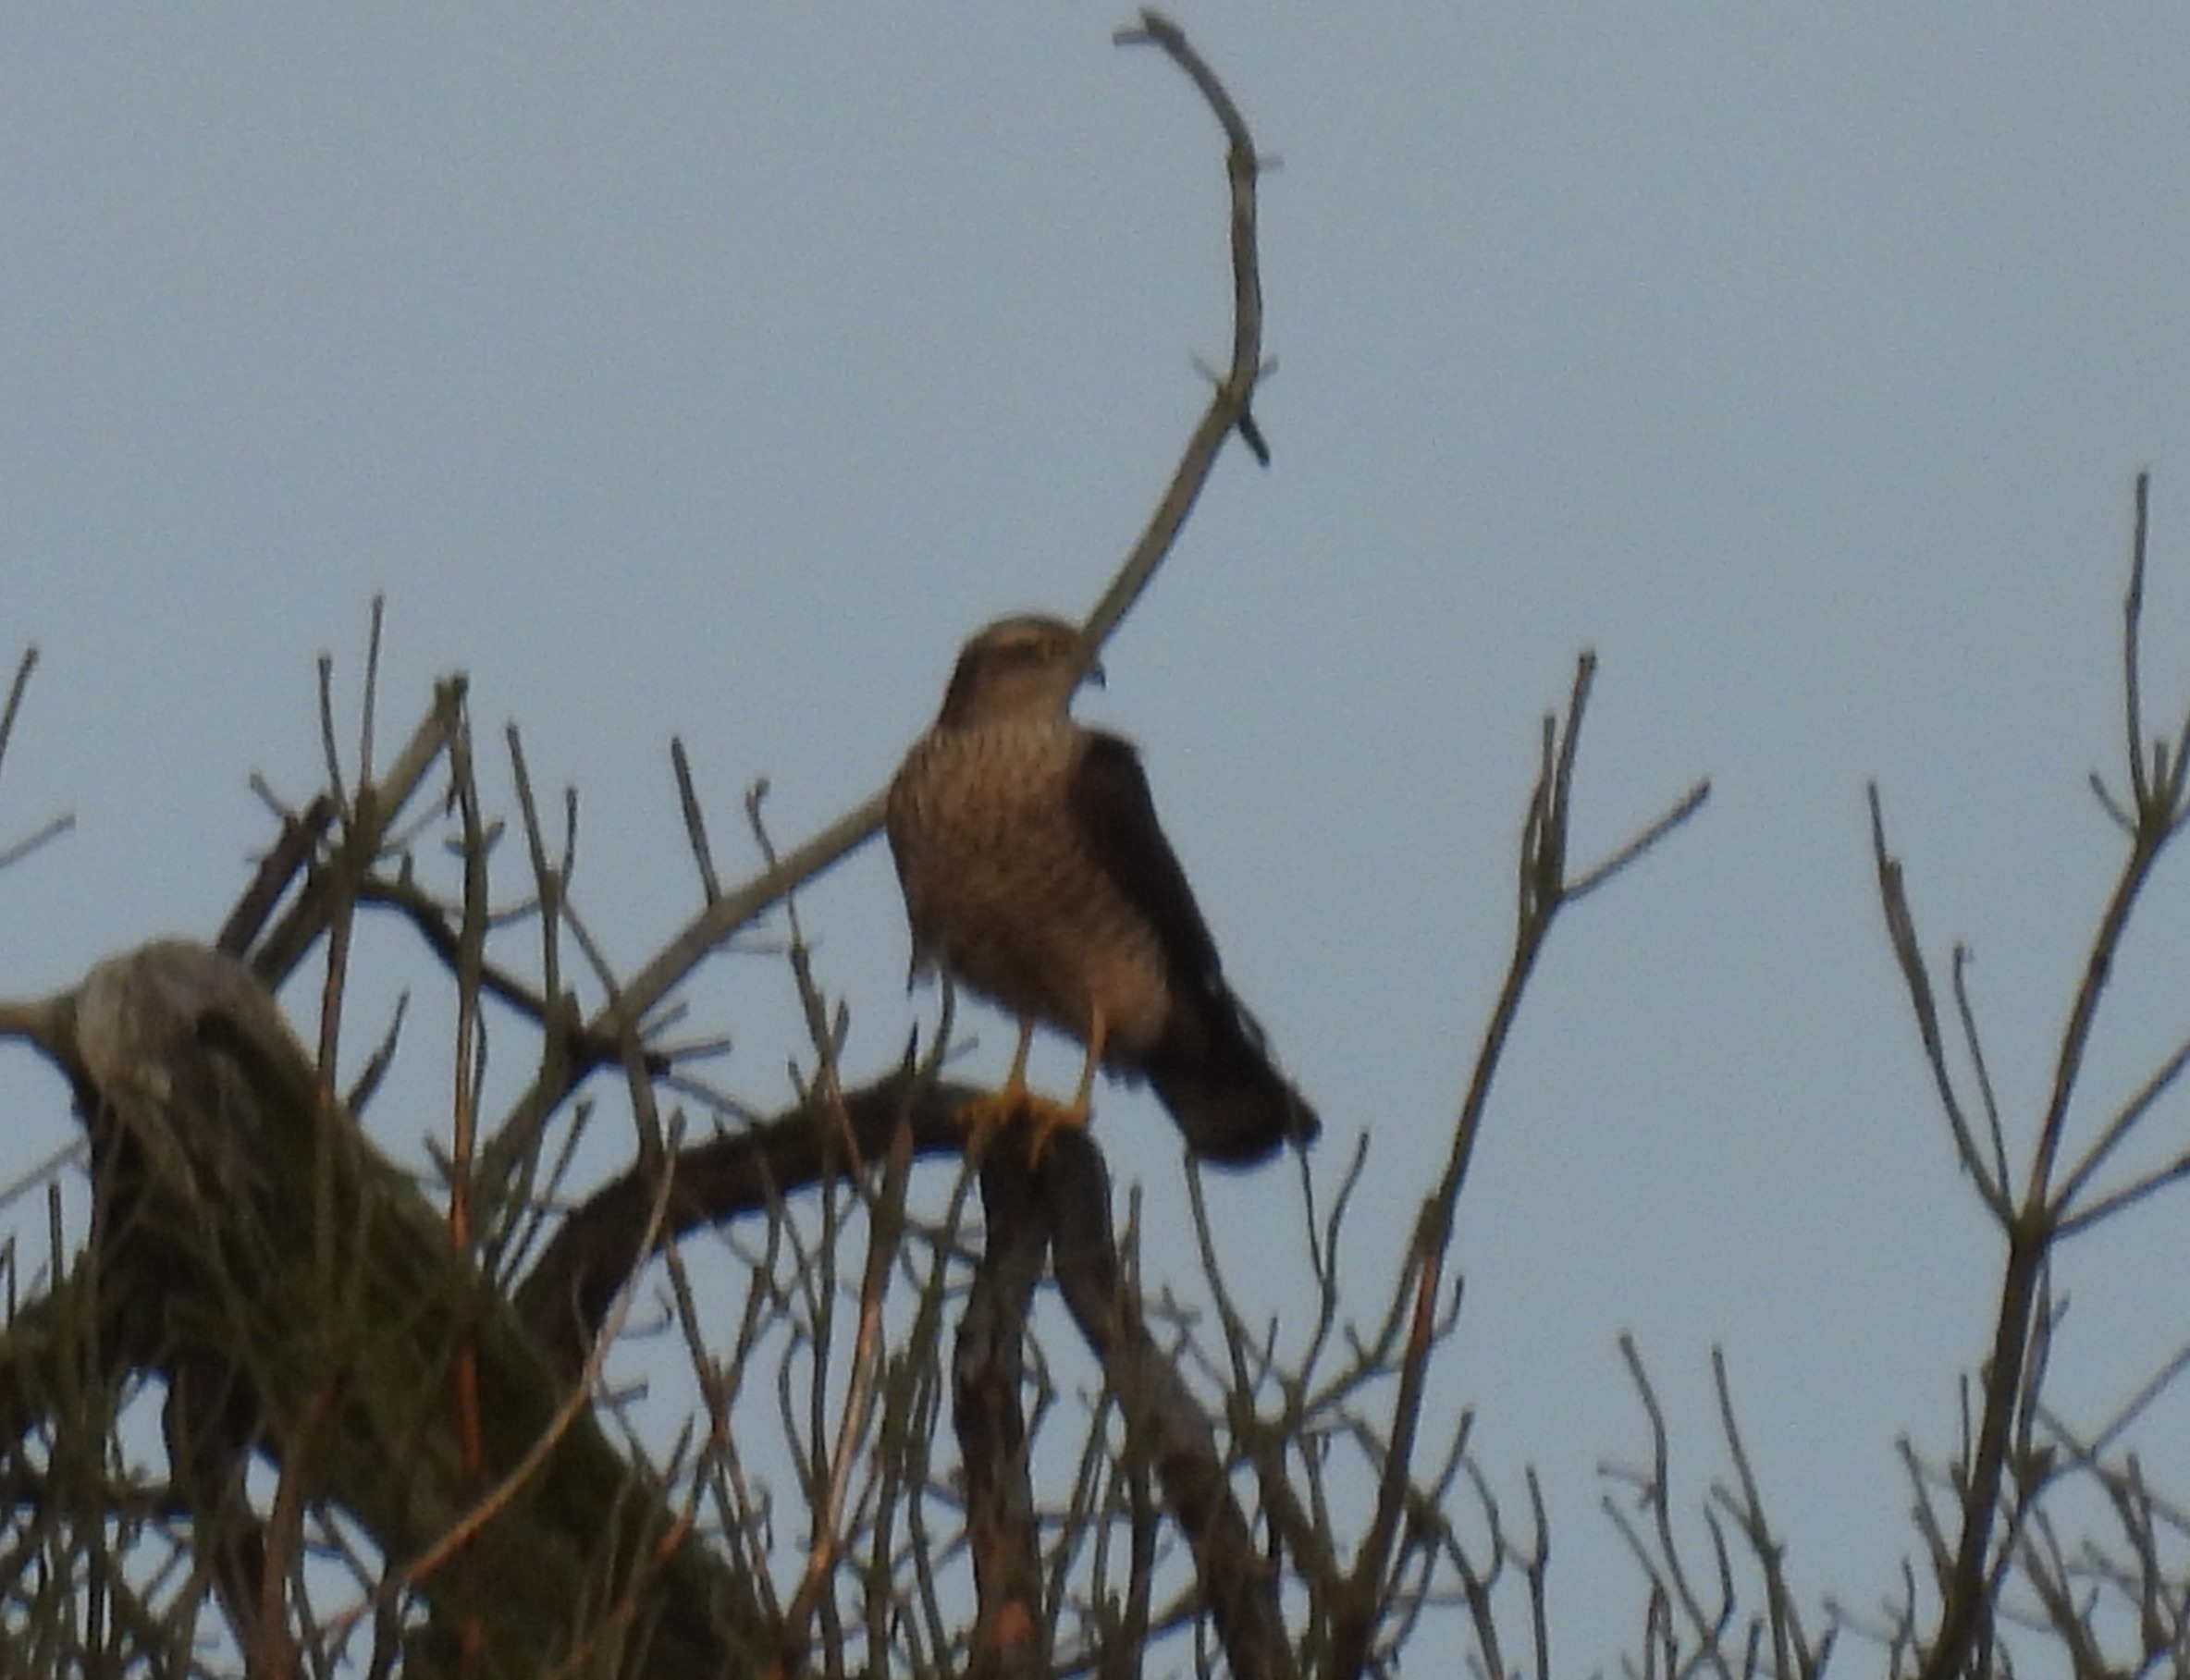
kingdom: Animalia
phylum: Chordata
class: Aves
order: Accipitriformes
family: Accipitridae
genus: Accipiter
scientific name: Accipiter gentilis
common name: Duehøg
